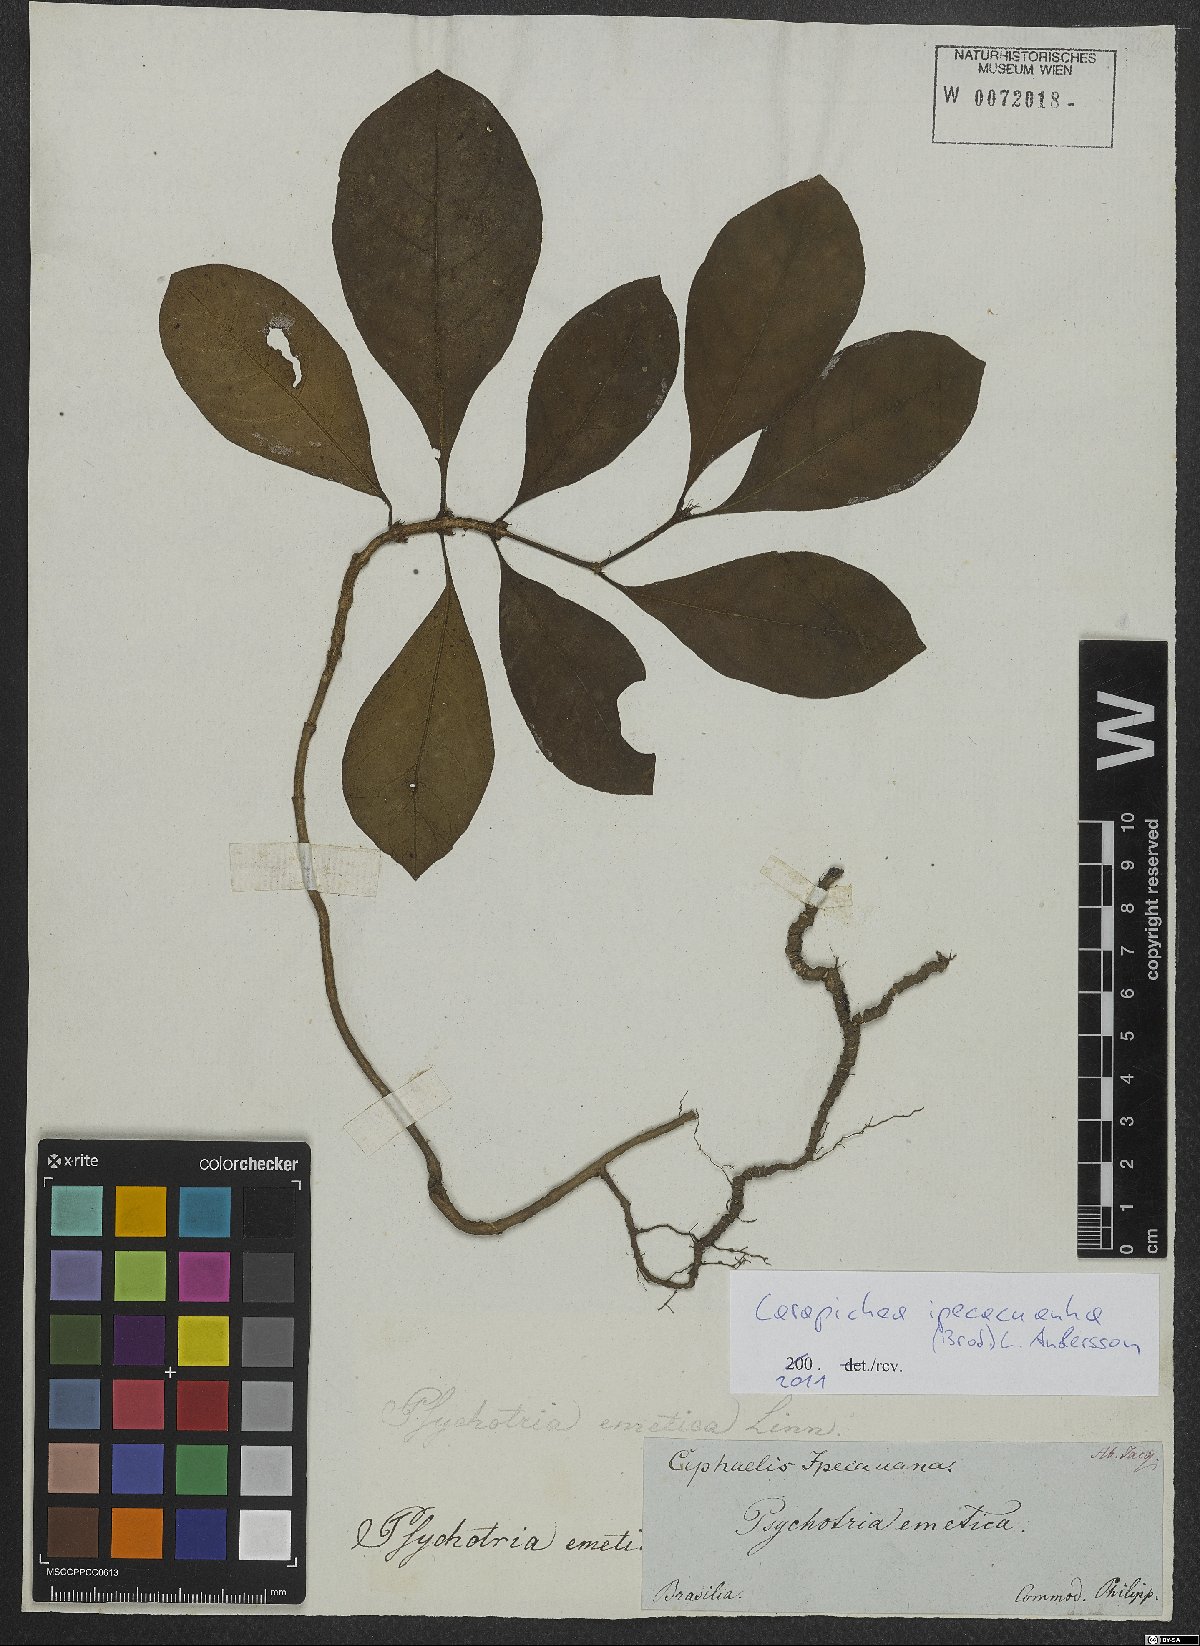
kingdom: Plantae
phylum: Tracheophyta
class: Magnoliopsida
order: Gentianales
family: Rubiaceae
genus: Carapichea
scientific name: Carapichea ipecacuanha
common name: Ipecac
